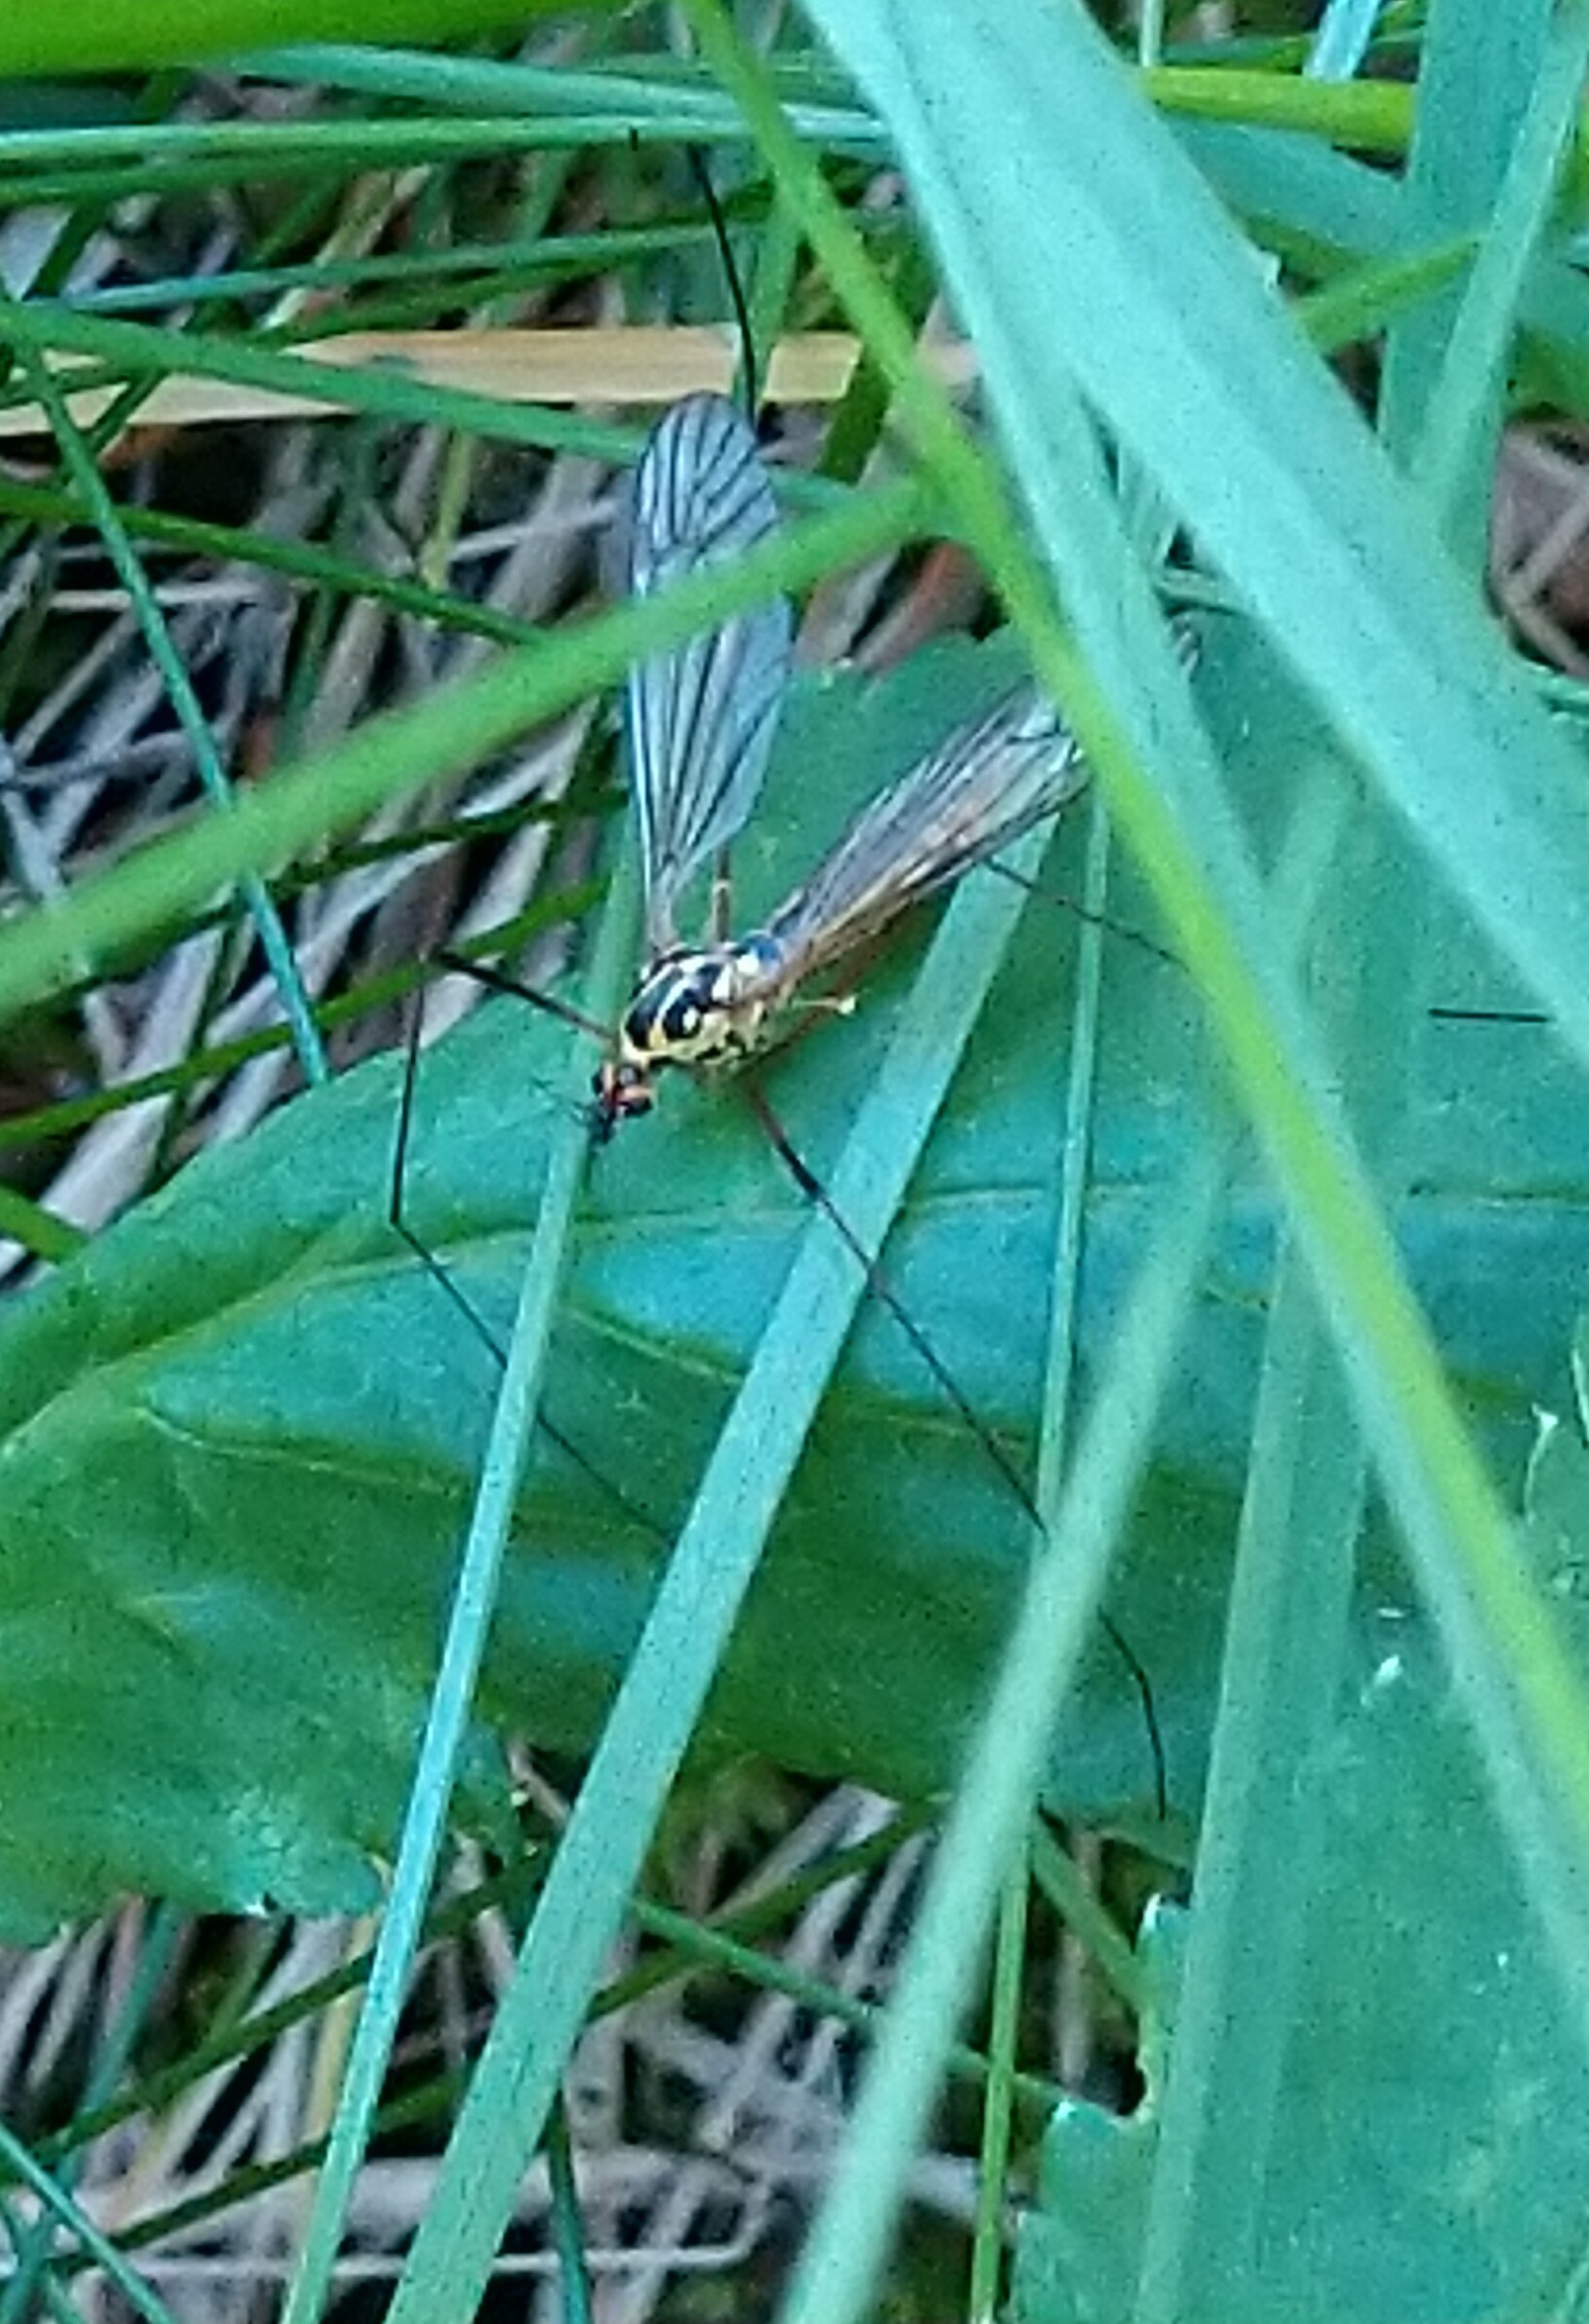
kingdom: Animalia
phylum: Arthropoda
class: Insecta
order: Diptera
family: Tipulidae
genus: Nephrotoma
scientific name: Nephrotoma
